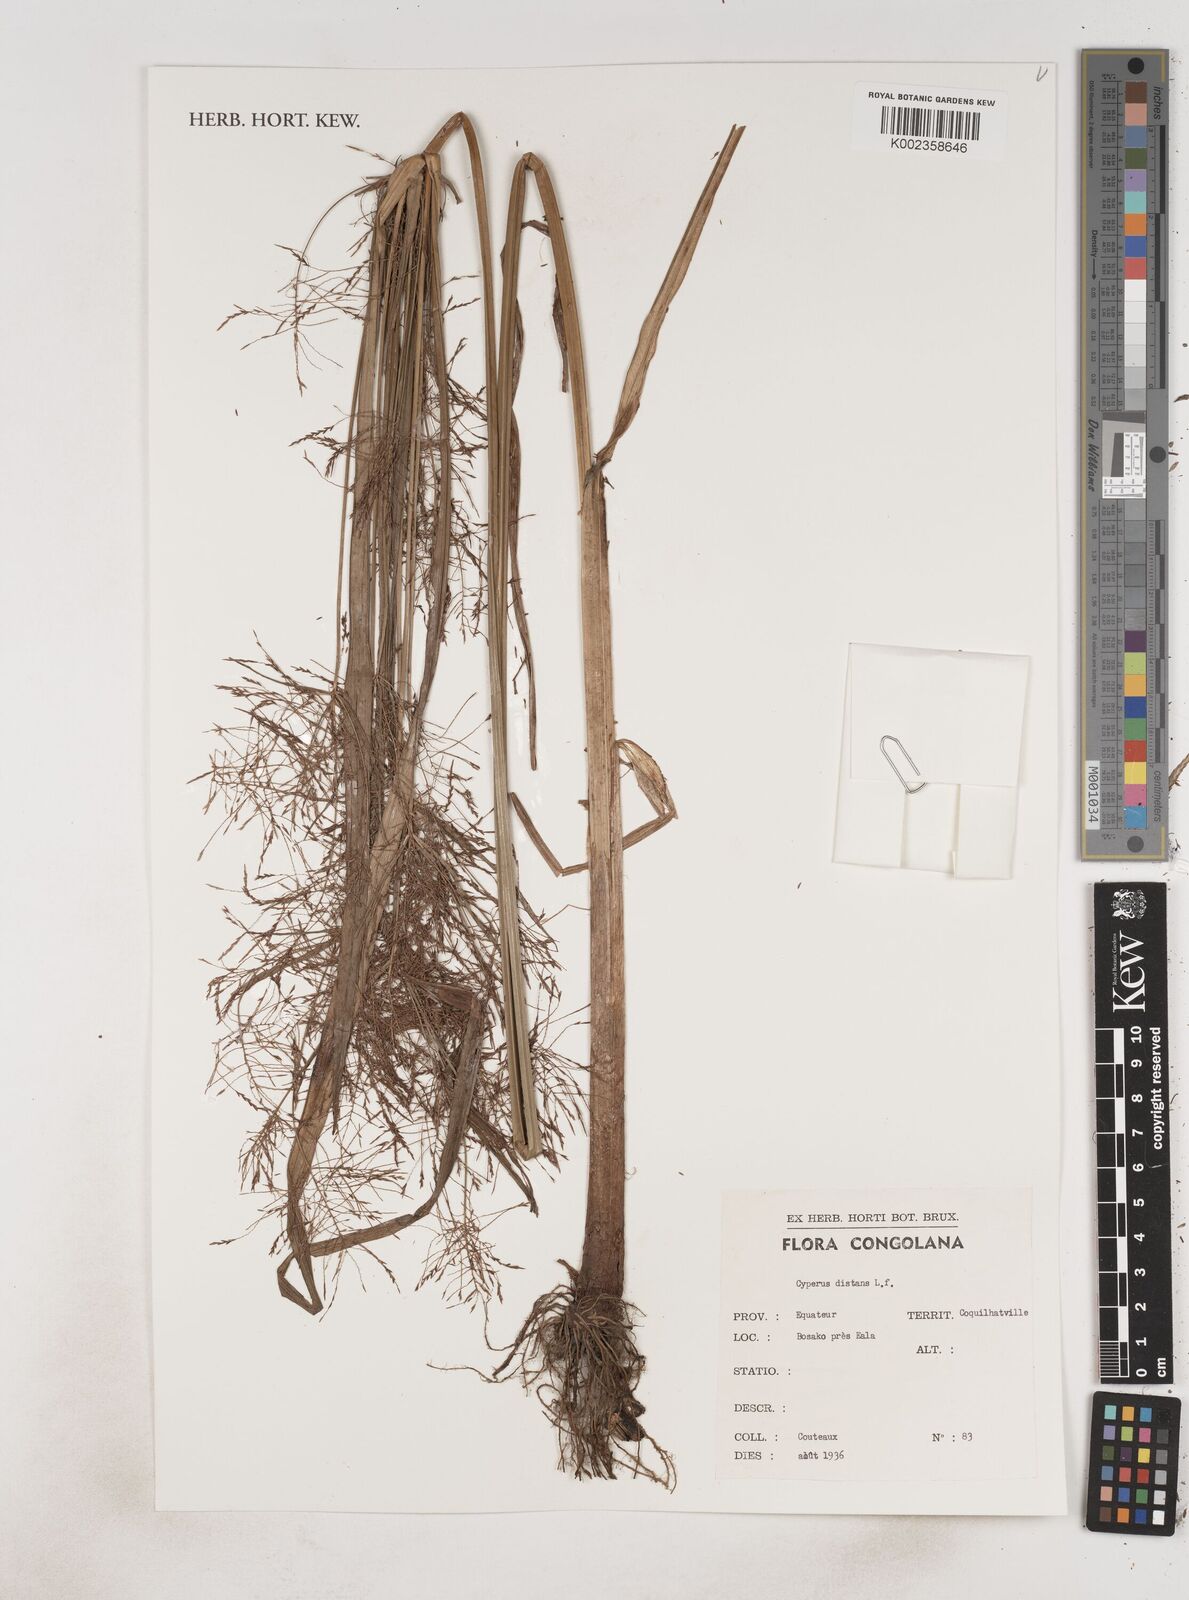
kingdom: Plantae
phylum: Tracheophyta
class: Liliopsida
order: Poales
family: Cyperaceae
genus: Cyperus
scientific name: Cyperus distans
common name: Slender cyperus
